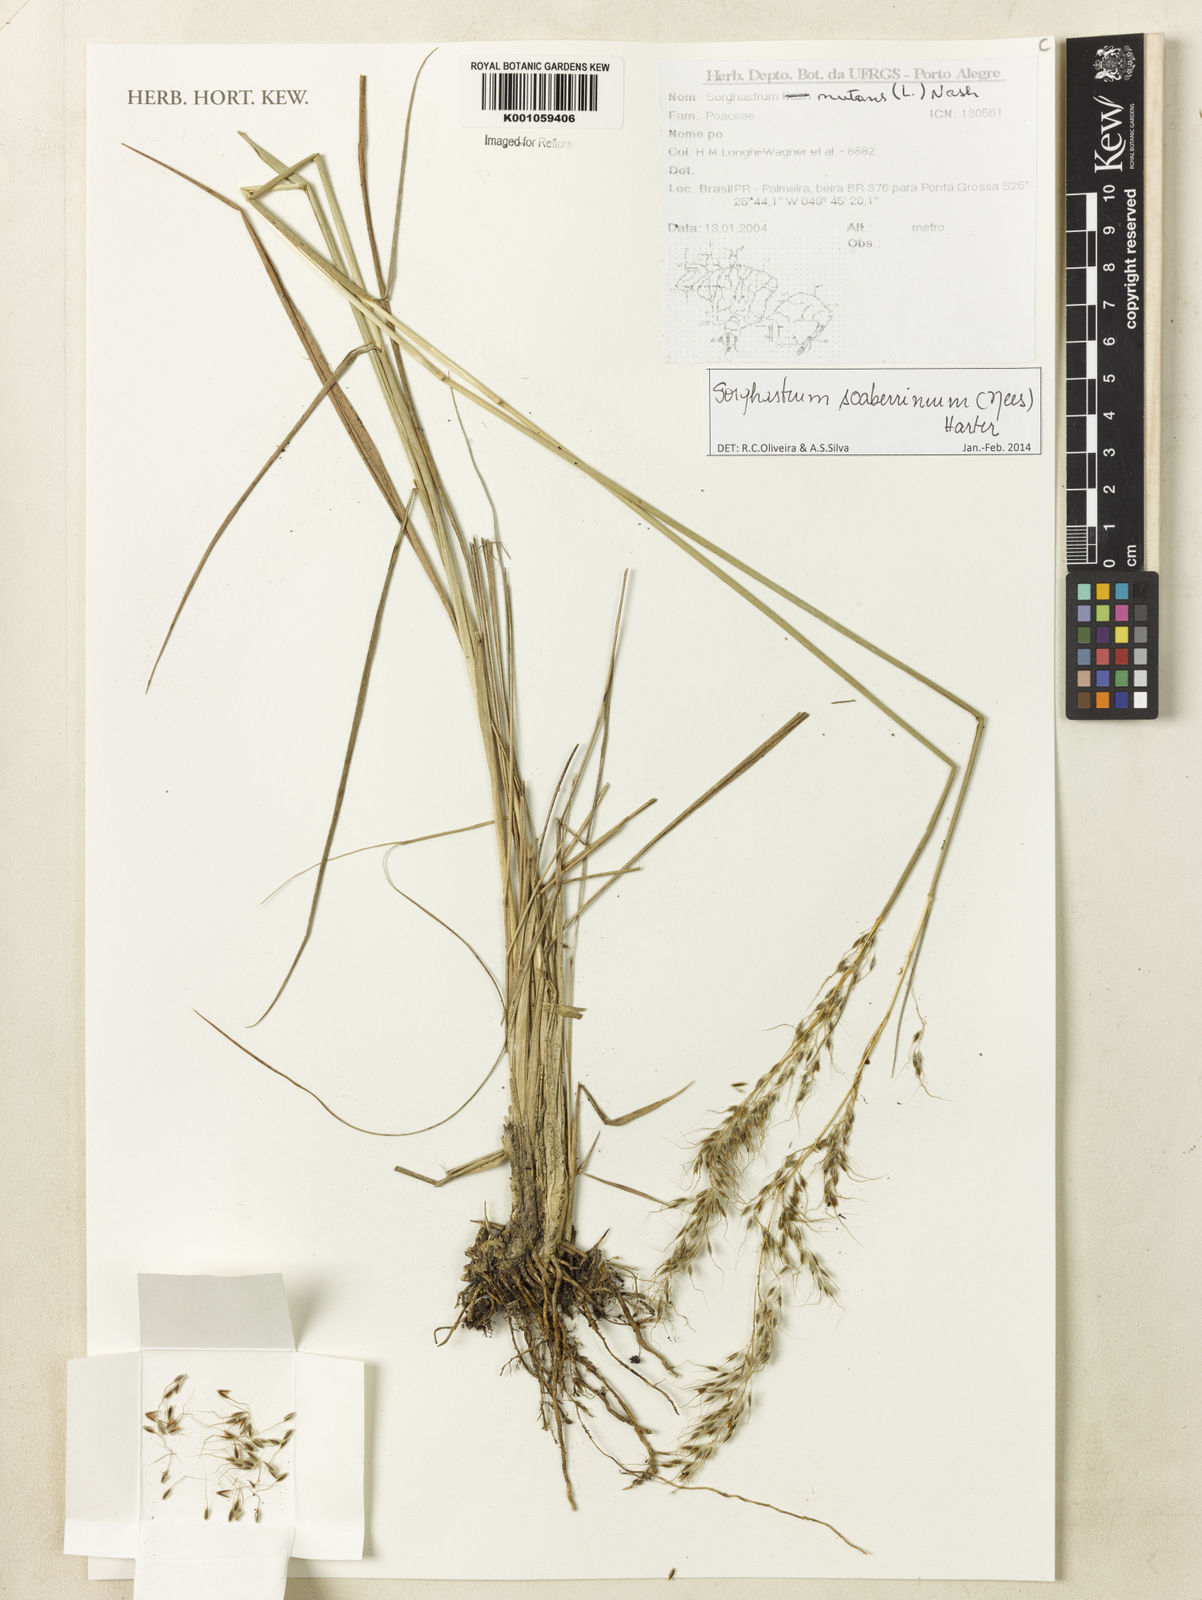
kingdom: Plantae
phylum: Tracheophyta
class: Liliopsida
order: Poales
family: Poaceae
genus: Sorghastrum
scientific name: Sorghastrum scaberrimum
